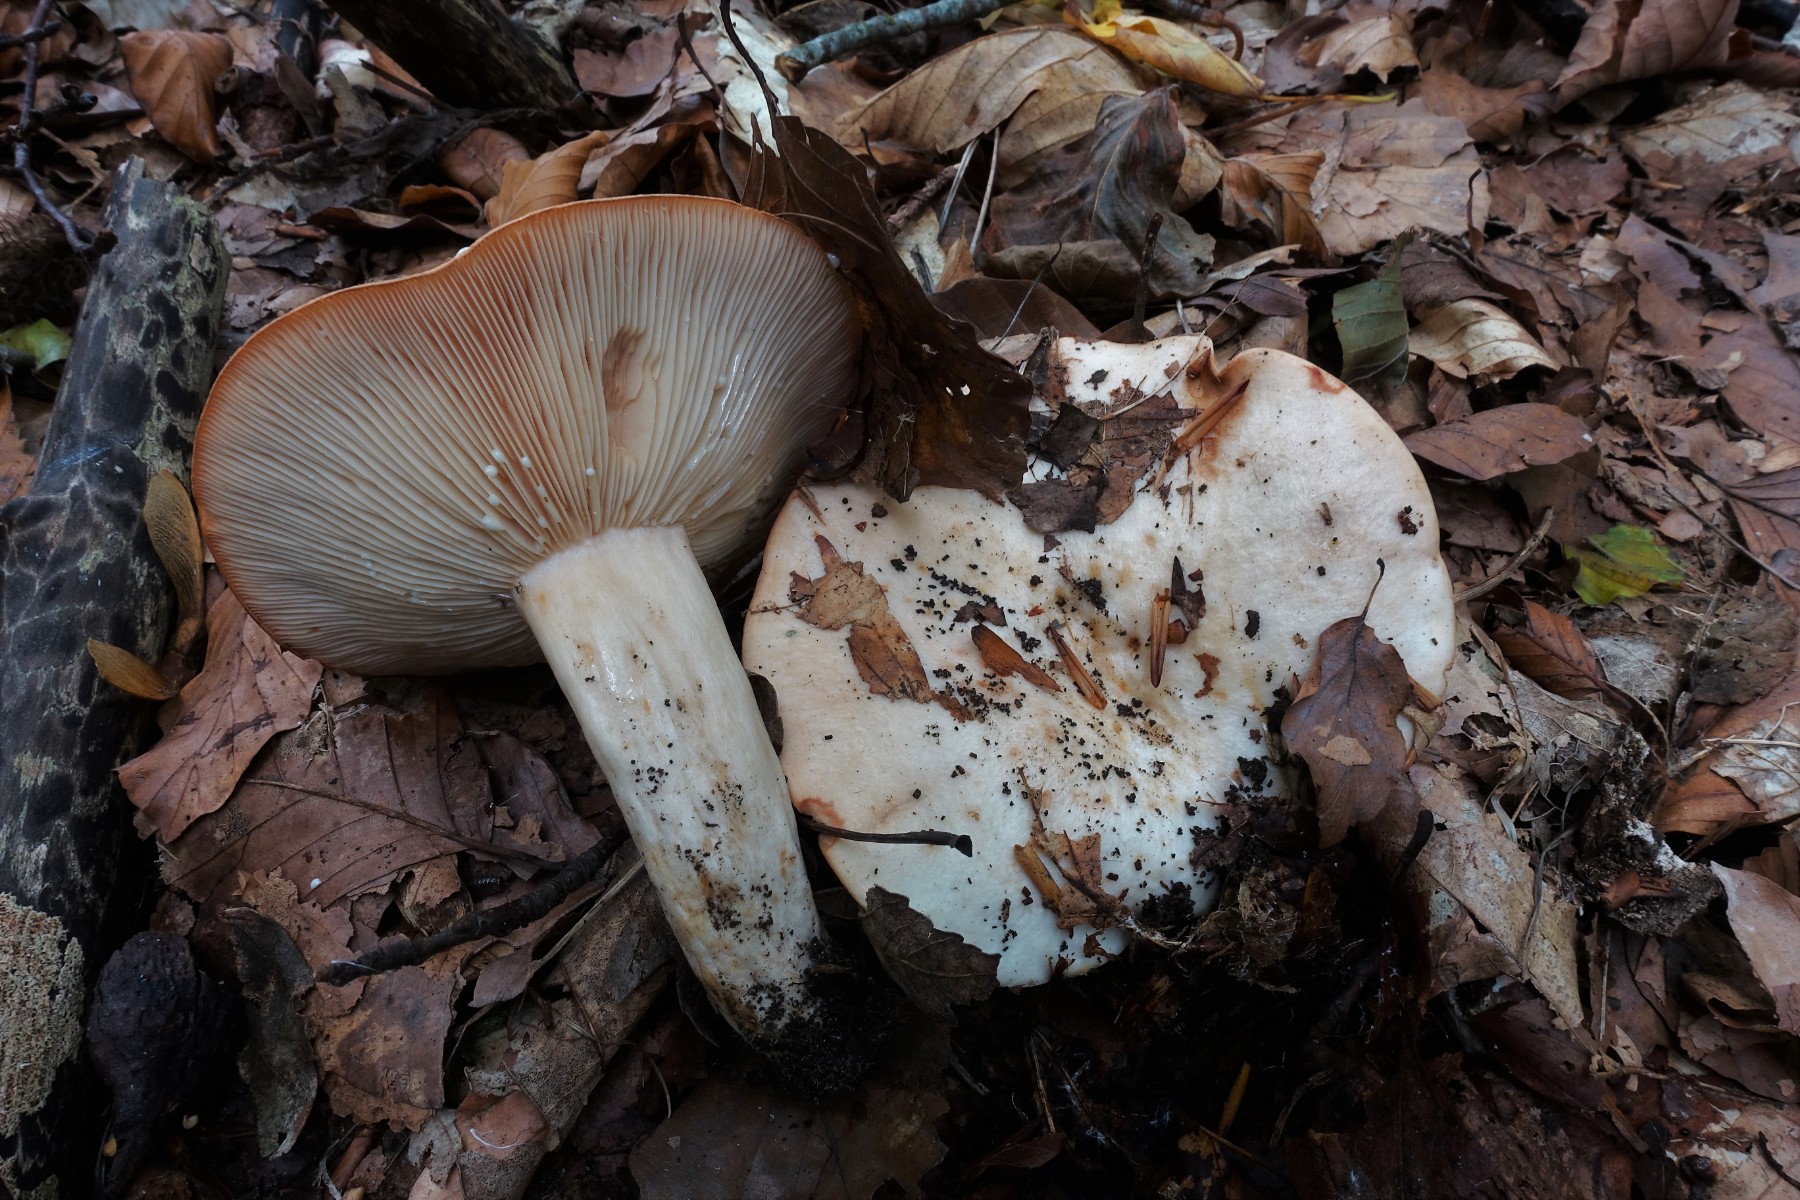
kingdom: Fungi
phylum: Basidiomycota
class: Agaricomycetes
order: Russulales
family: Russulaceae
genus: Lactarius
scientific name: Lactarius pallidus
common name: bleg mælkehat
